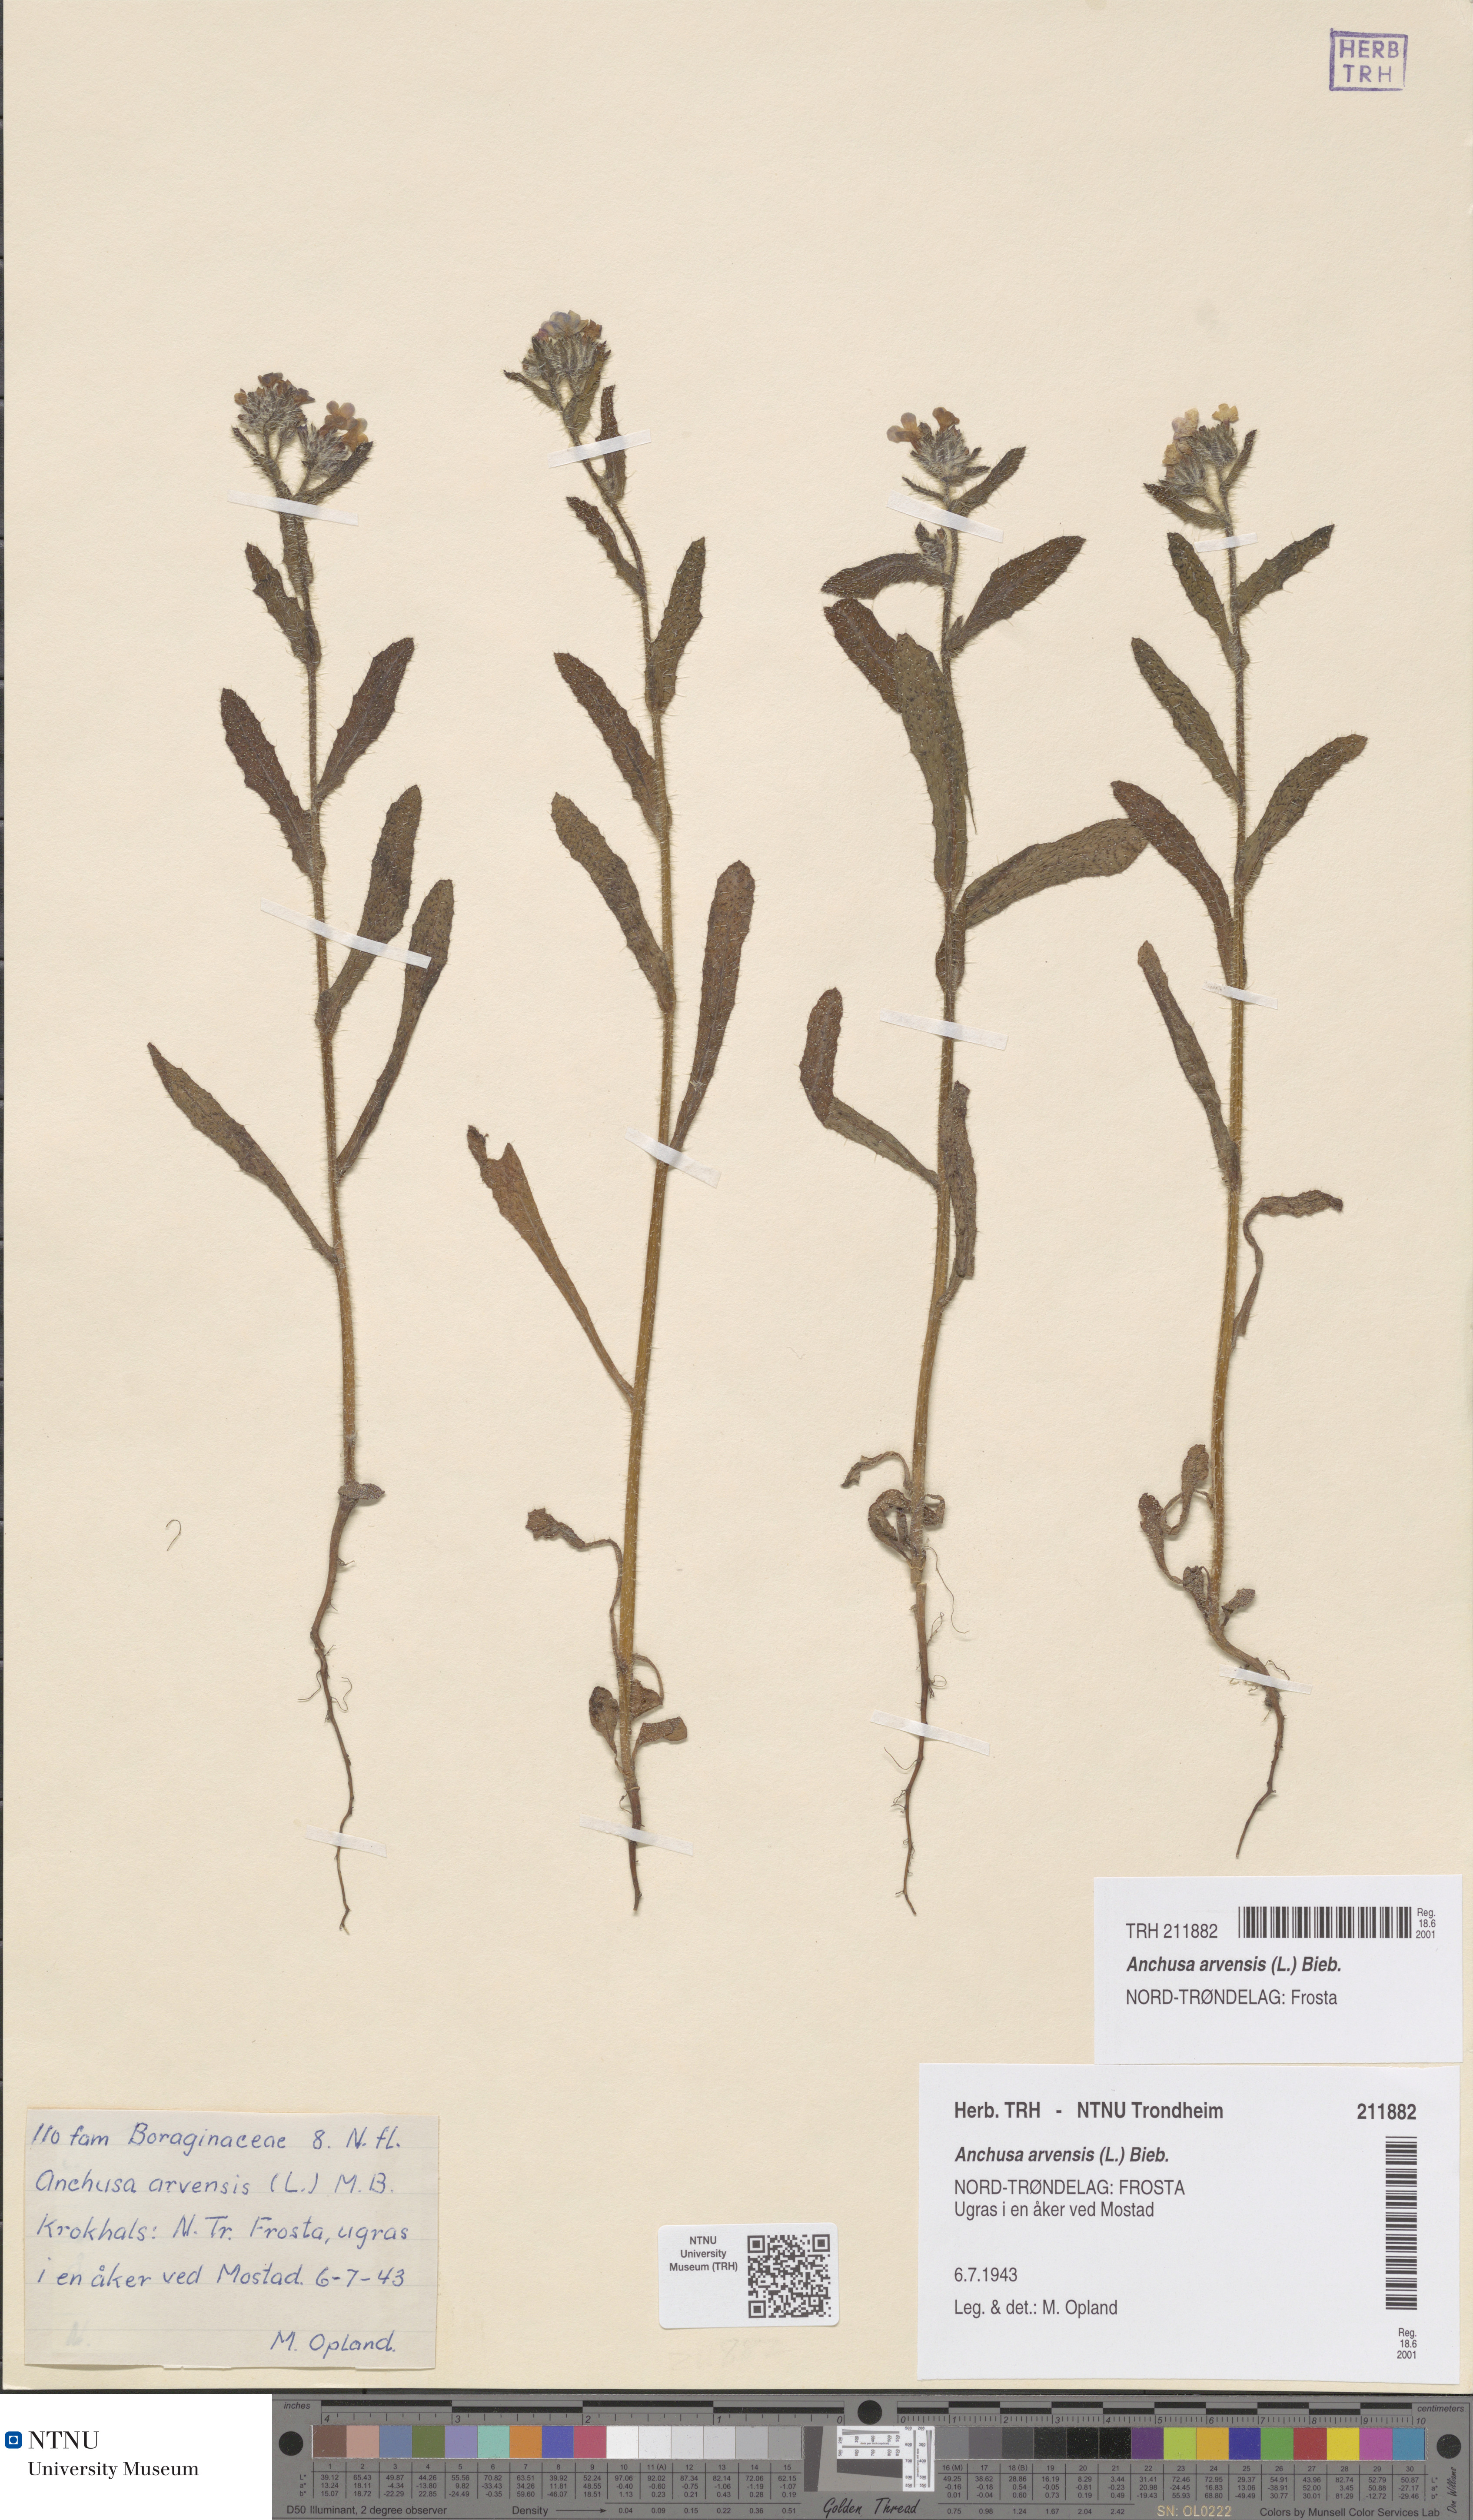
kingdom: Plantae
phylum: Tracheophyta
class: Magnoliopsida
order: Boraginales
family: Boraginaceae
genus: Lycopsis
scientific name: Lycopsis arvensis
